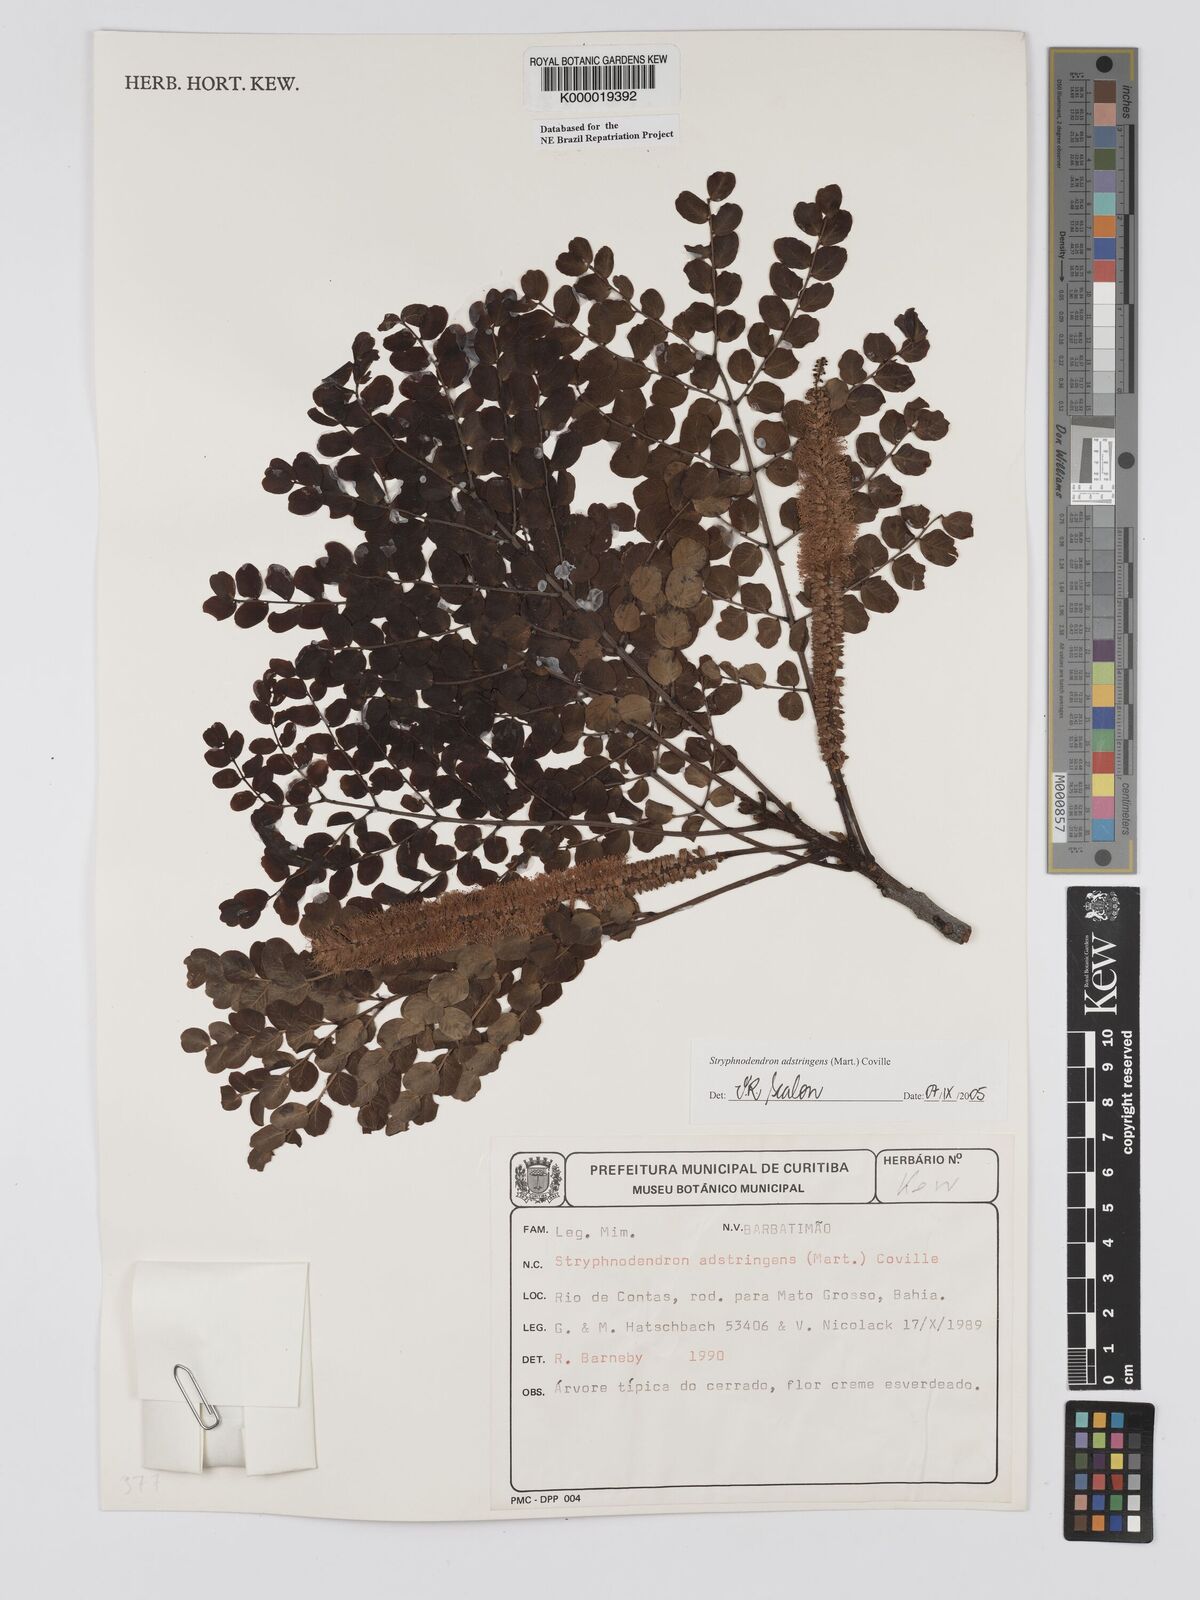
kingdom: Plantae
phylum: Tracheophyta
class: Magnoliopsida
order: Fabales
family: Fabaceae
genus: Stryphnodendron
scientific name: Stryphnodendron adstringens
